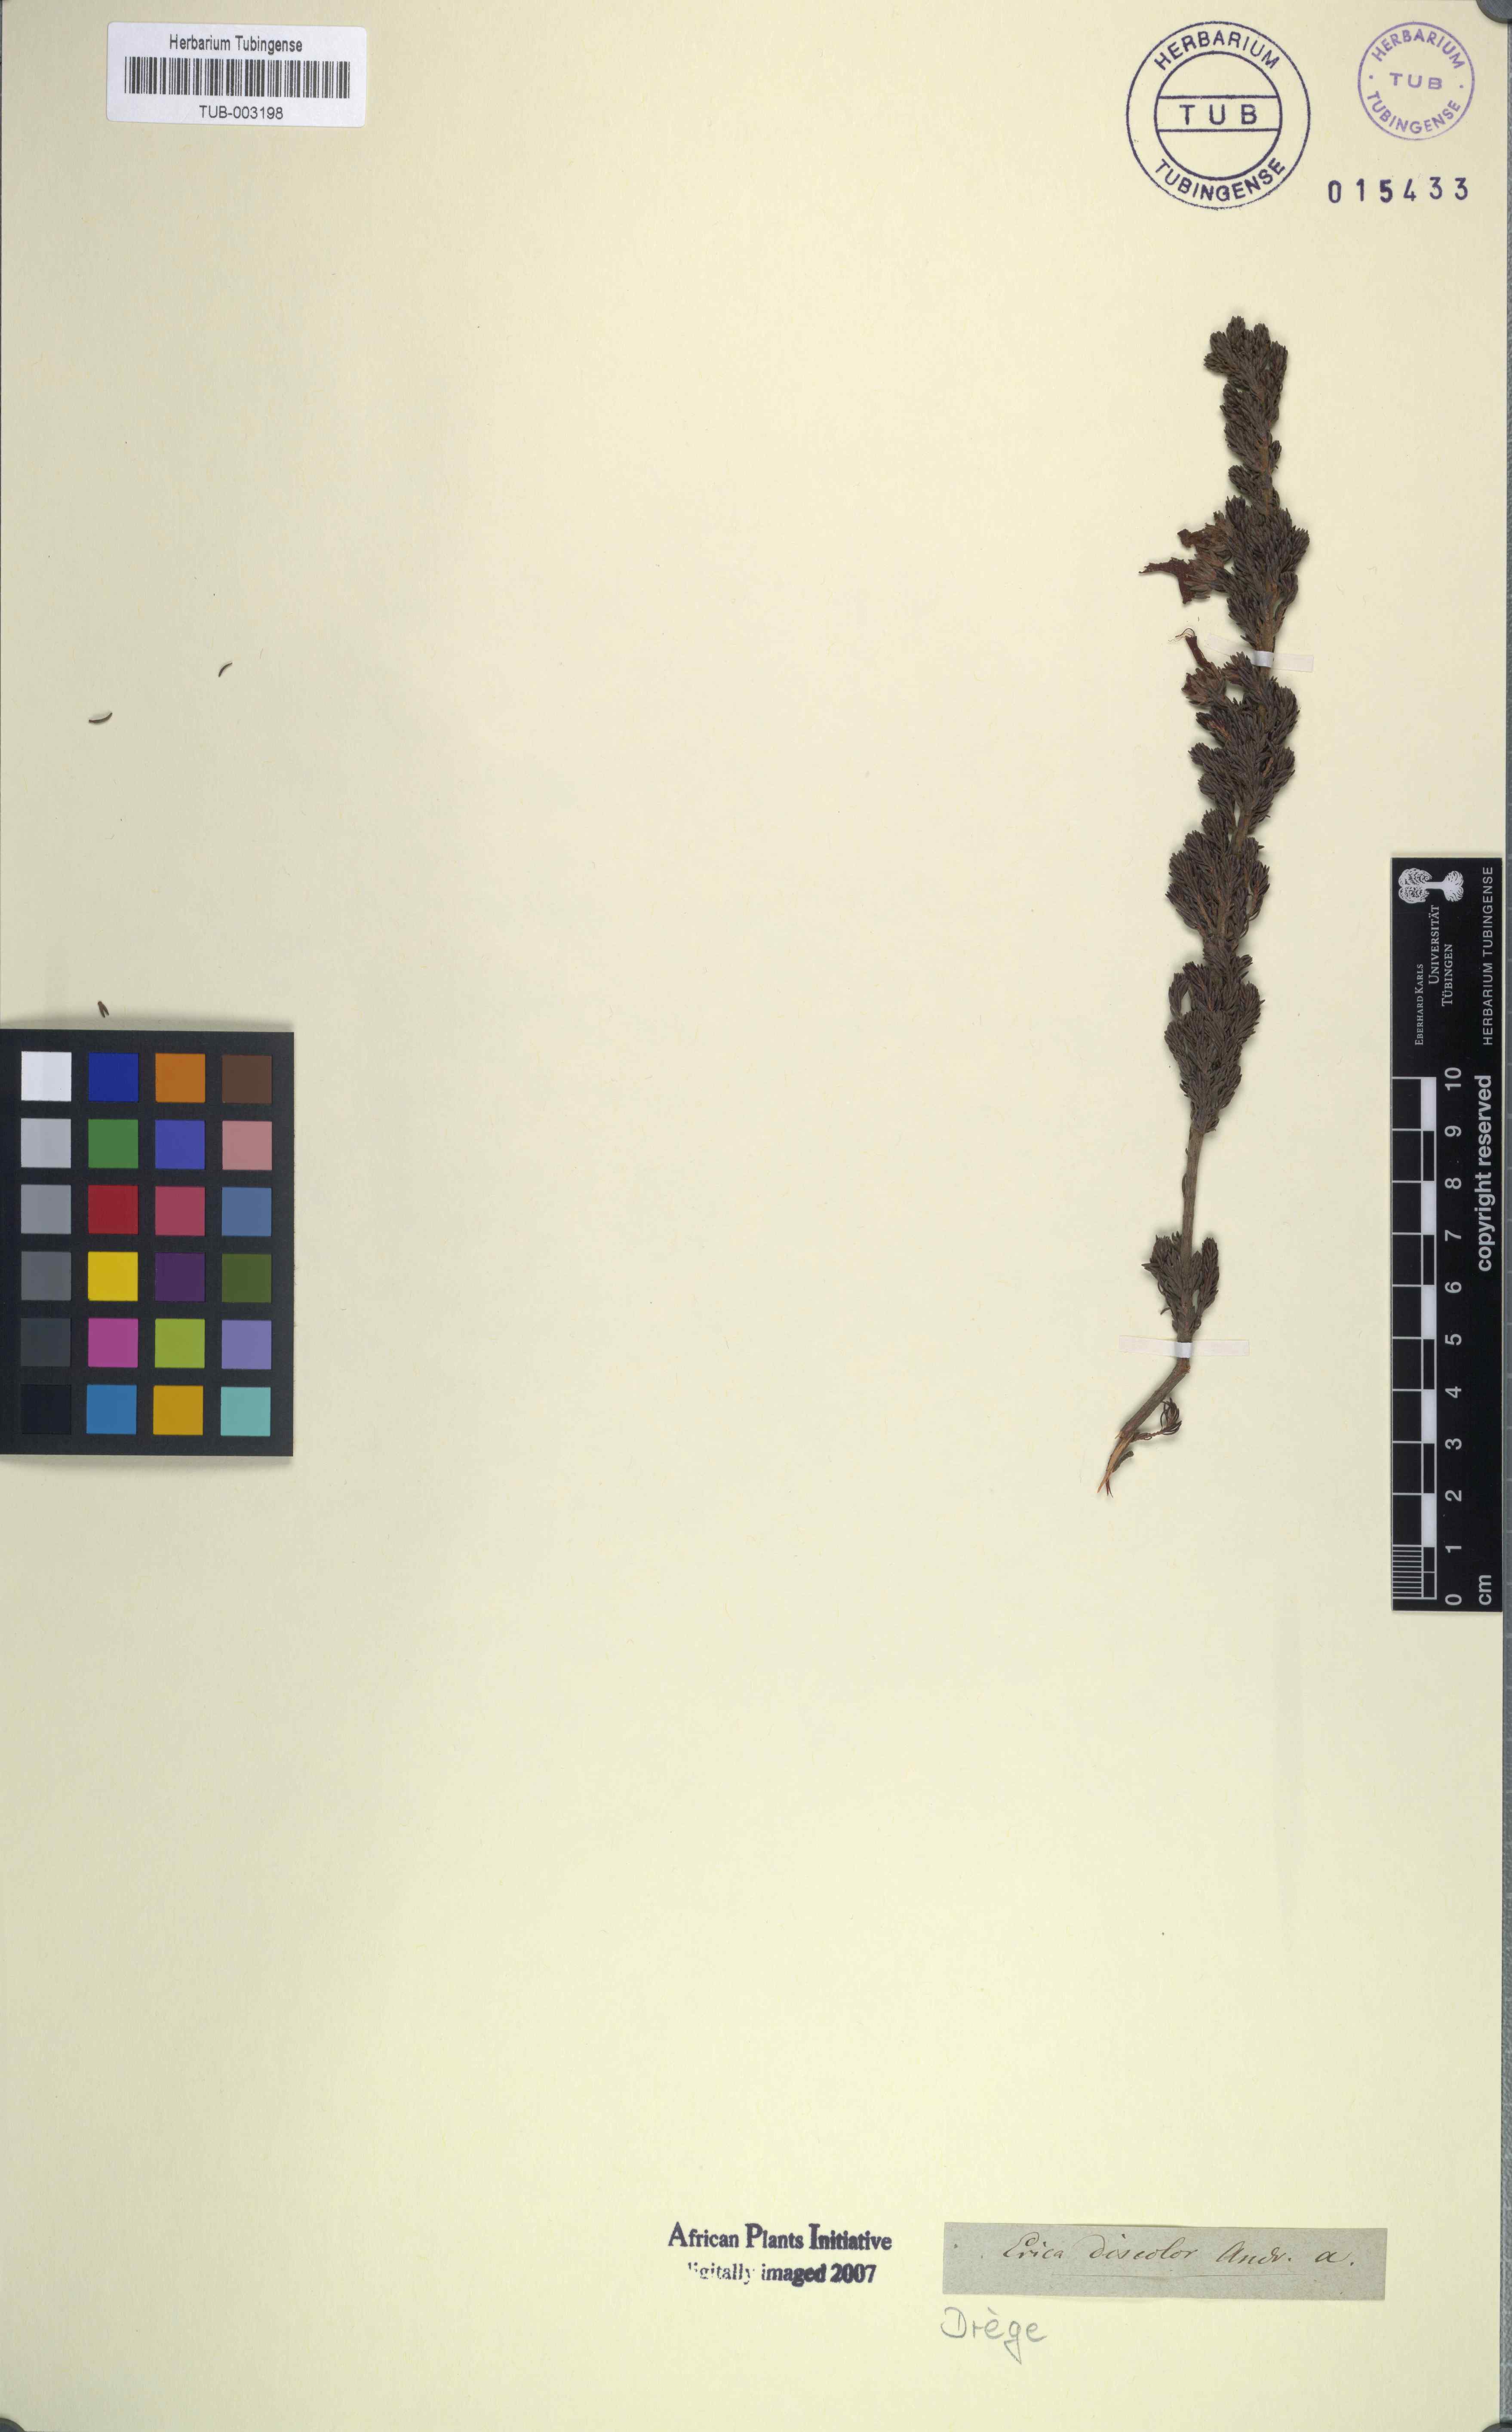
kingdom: Plantae
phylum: Tracheophyta
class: Magnoliopsida
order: Ericales
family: Ericaceae
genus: Erica
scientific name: Erica discolor
